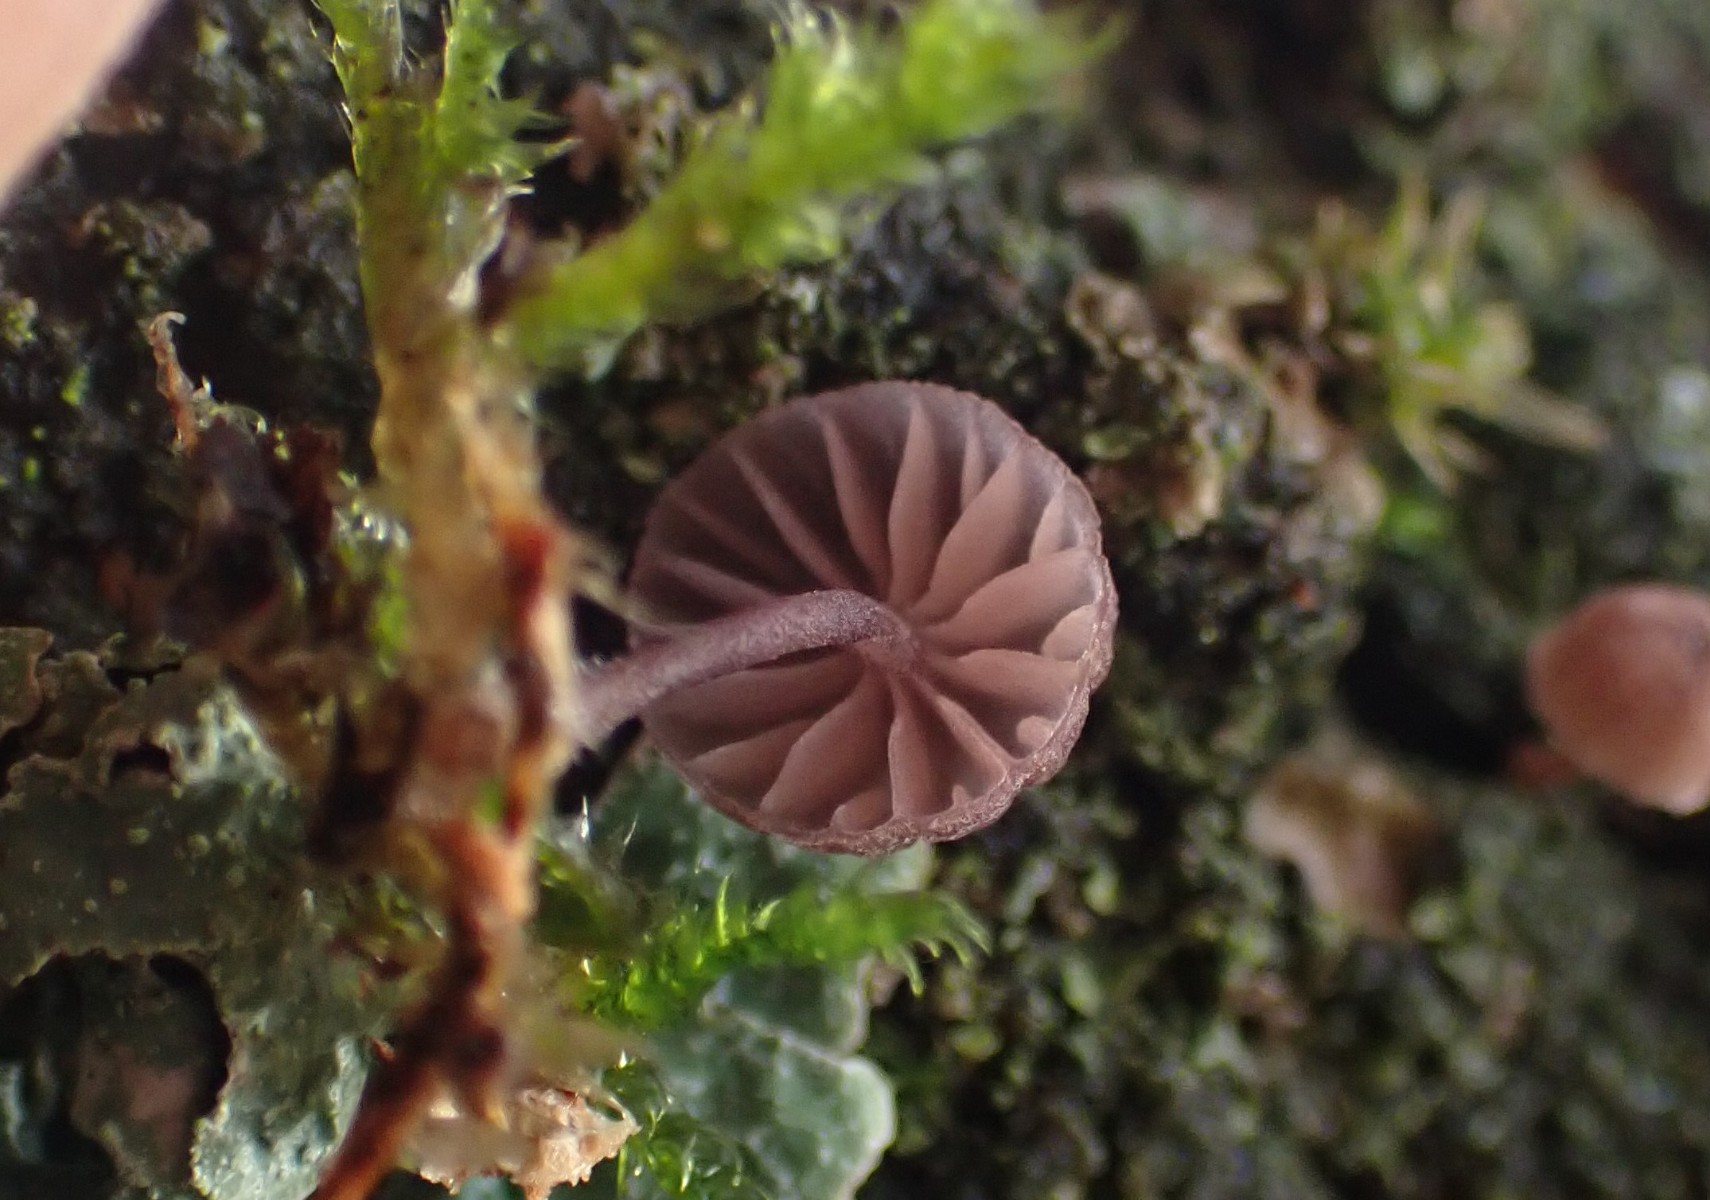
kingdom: Fungi
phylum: Basidiomycota
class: Agaricomycetes
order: Agaricales
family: Mycenaceae
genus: Mycena
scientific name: Mycena meliigena
